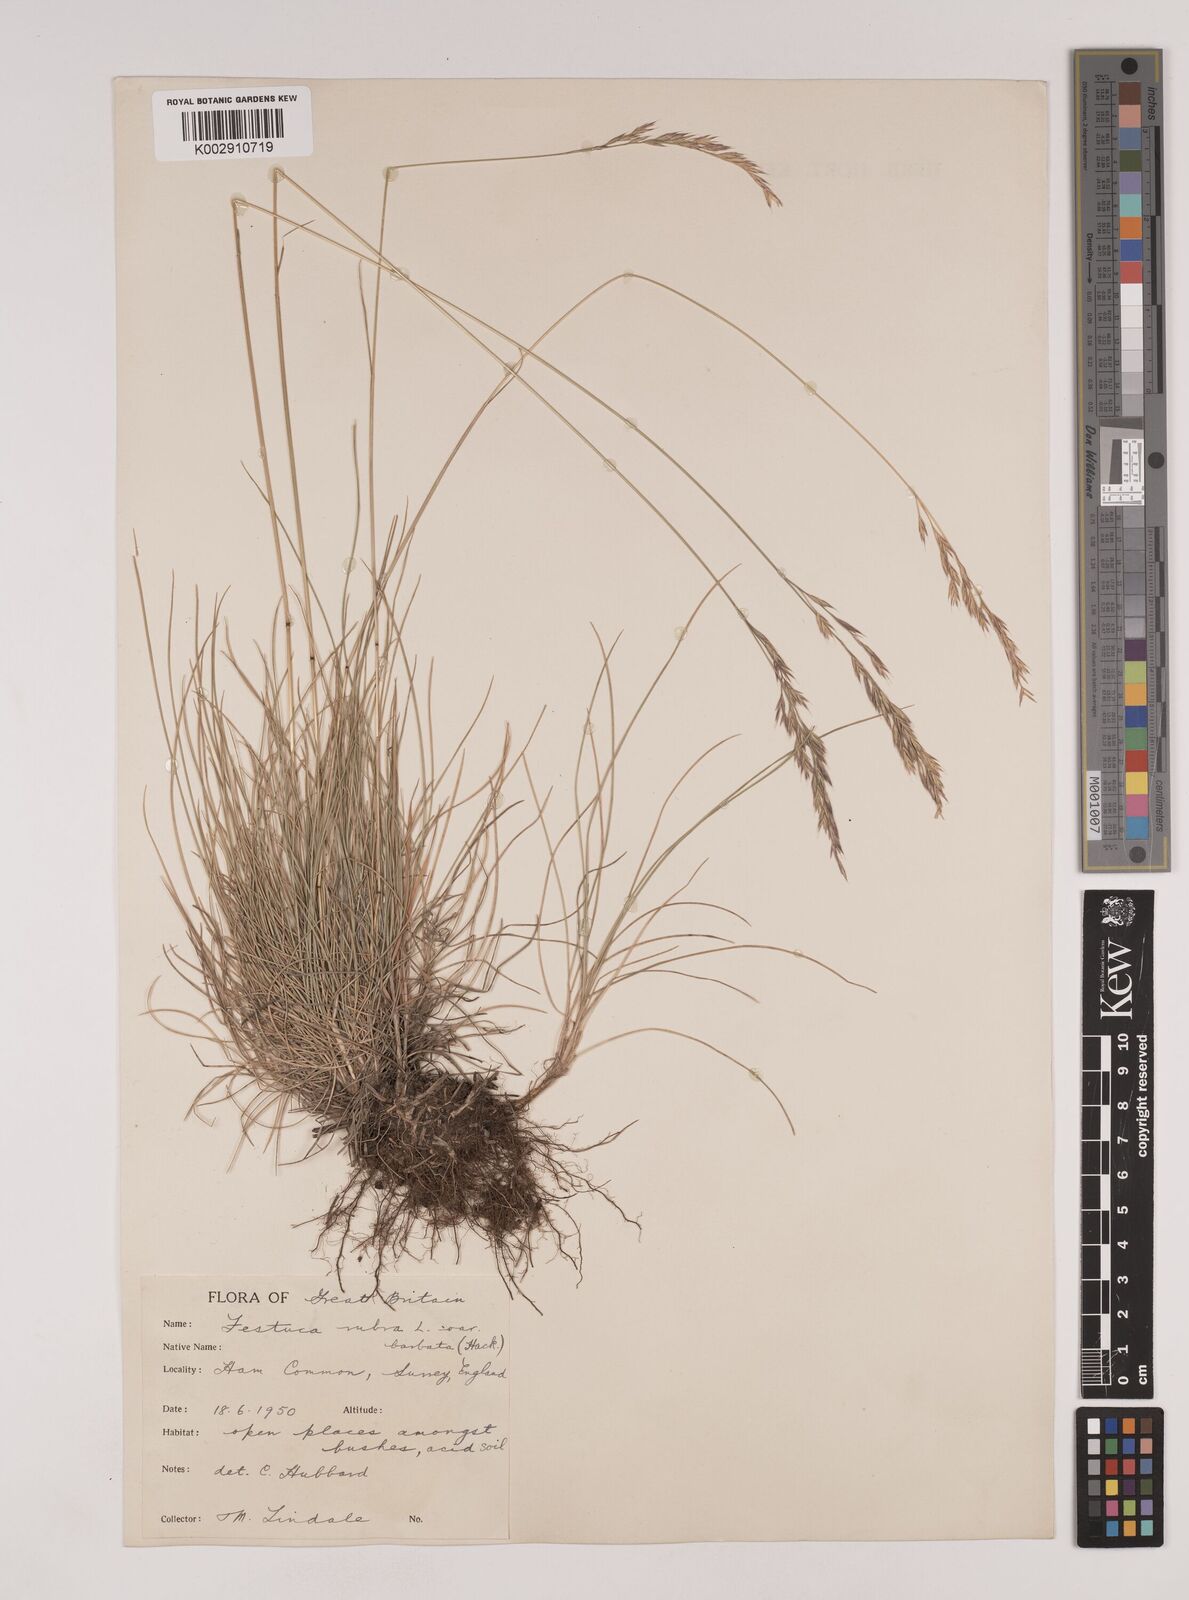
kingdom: Plantae
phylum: Tracheophyta
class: Liliopsida
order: Poales
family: Poaceae
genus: Festuca
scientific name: Festuca rubra
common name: Red fescue
